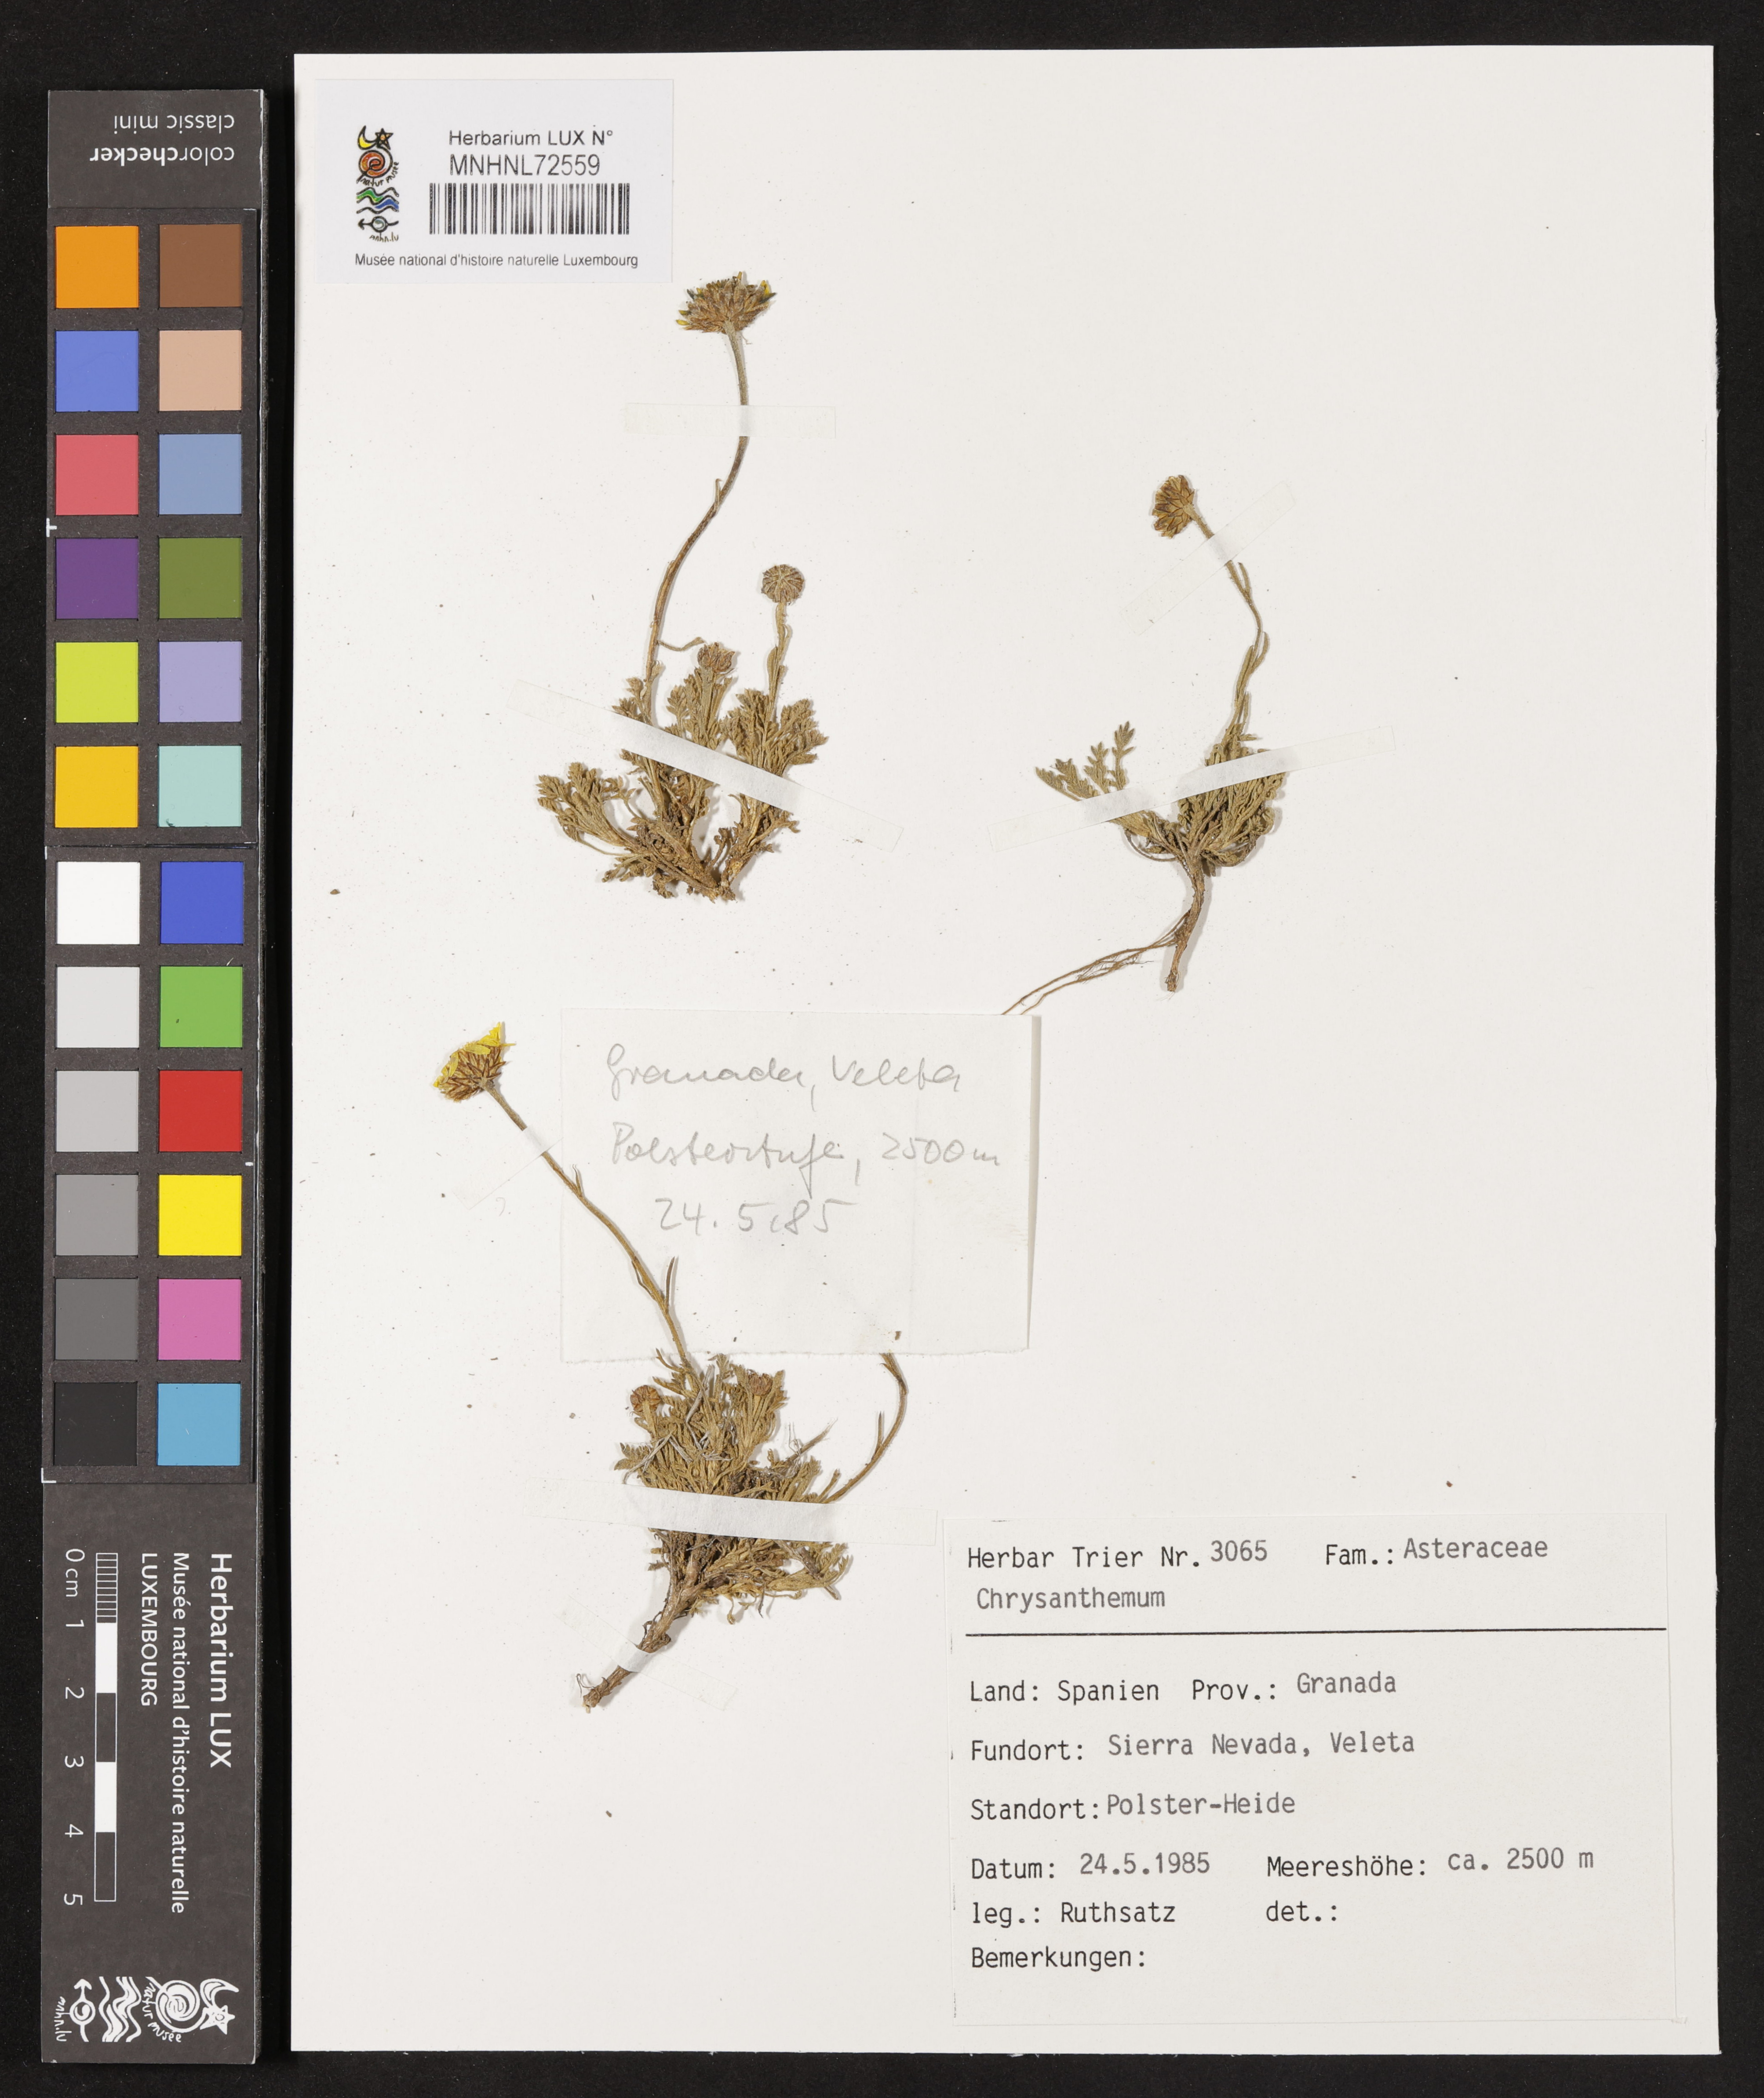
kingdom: Plantae
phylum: Tracheophyta
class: Magnoliopsida
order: Asterales
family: Asteraceae
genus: Chrysanthemum
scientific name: Chrysanthemum
